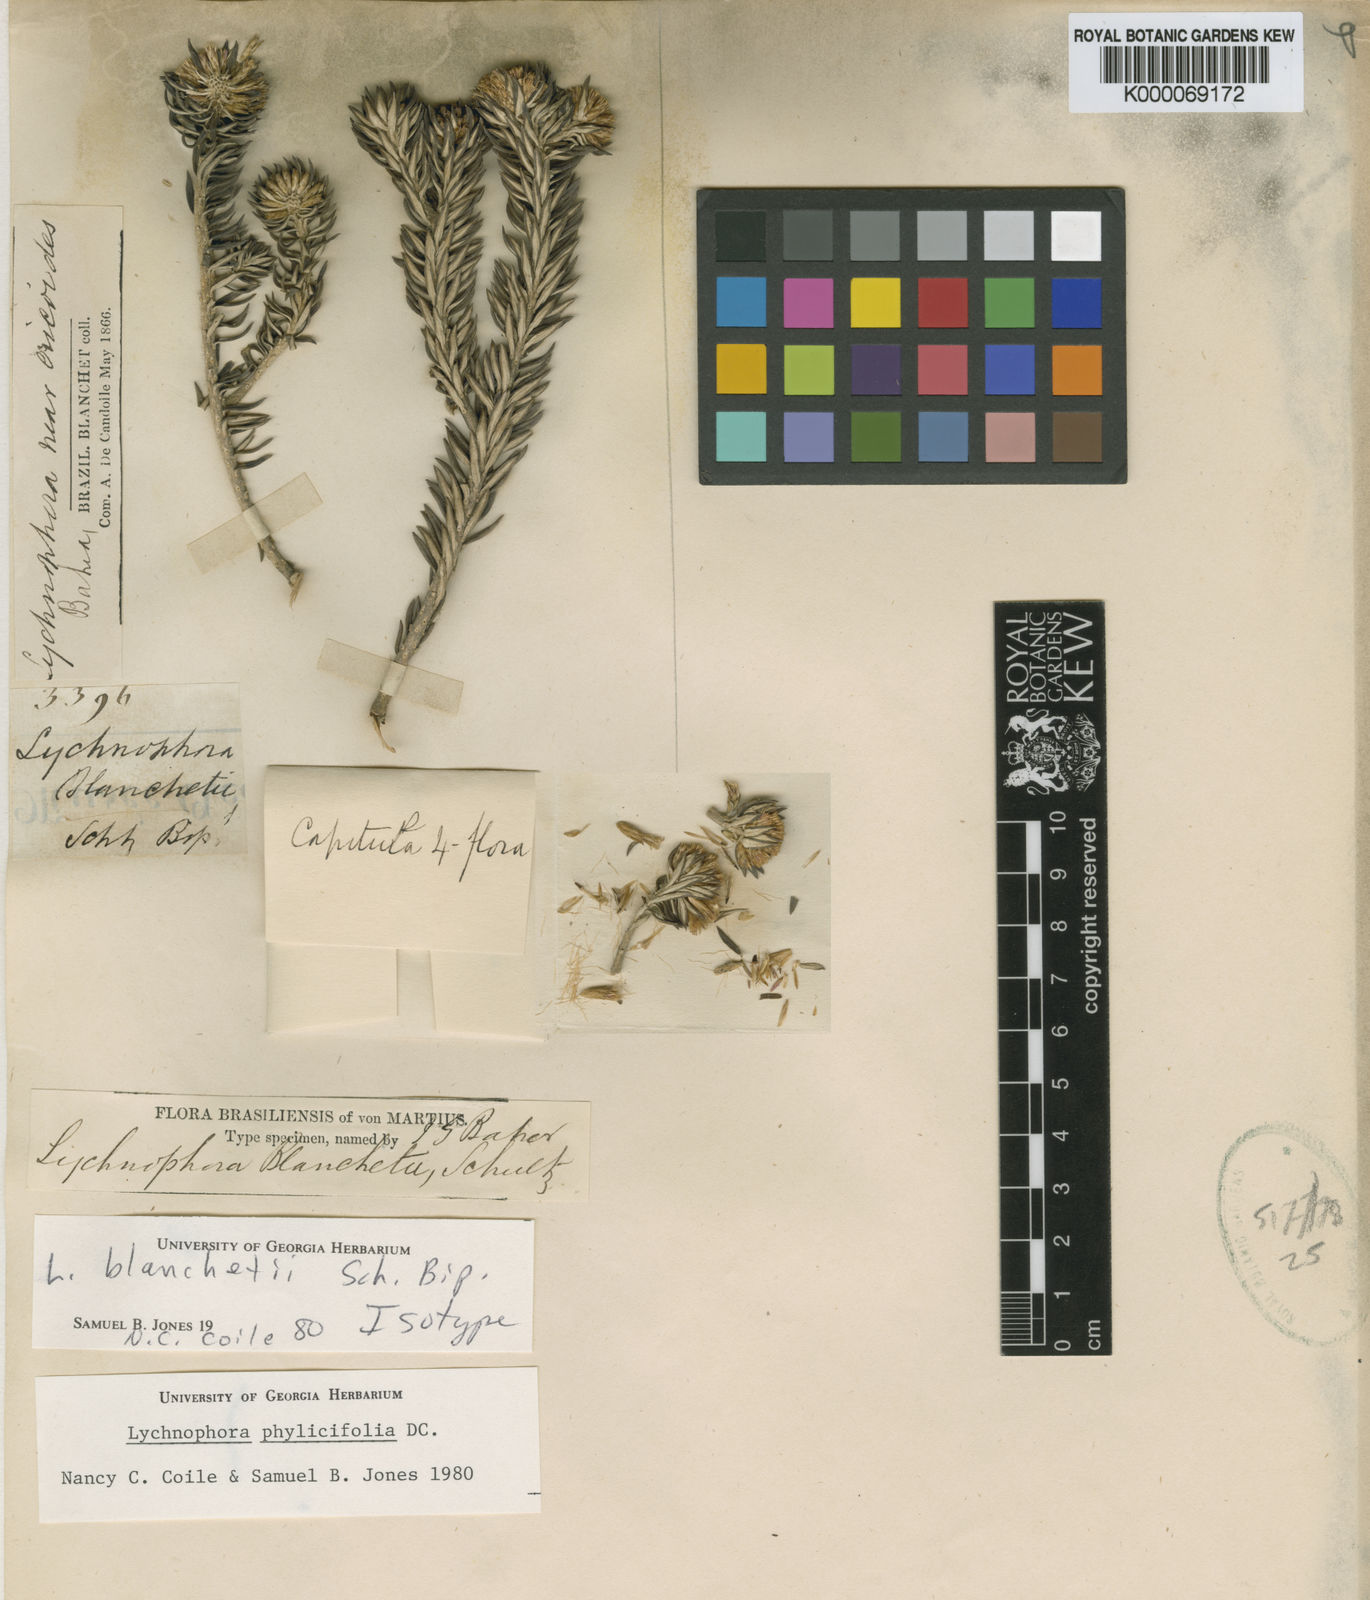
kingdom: Plantae
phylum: Tracheophyta
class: Magnoliopsida
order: Asterales
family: Asteraceae
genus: Lychnophorella
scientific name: Lychnophorella blanchetii
